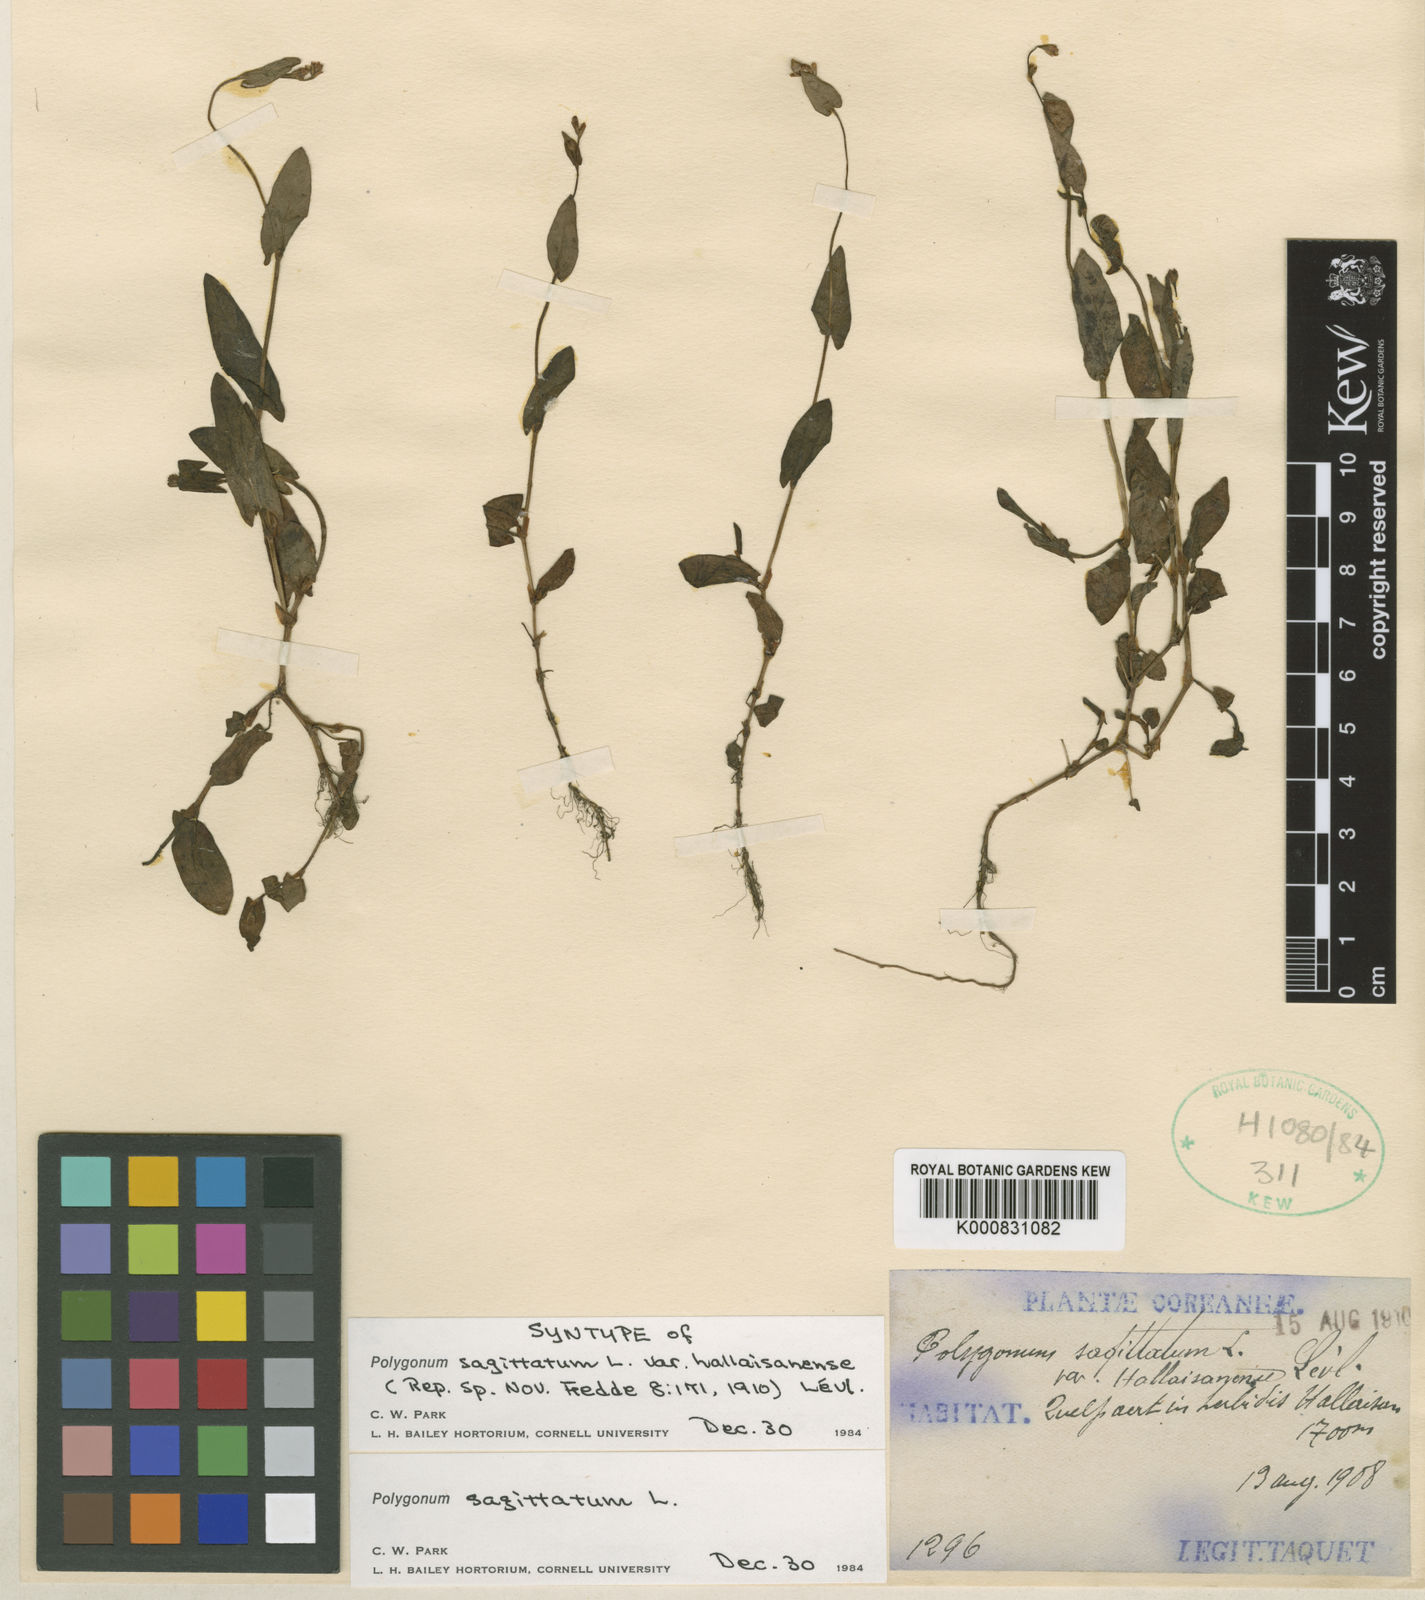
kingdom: Plantae
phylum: Tracheophyta
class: Magnoliopsida
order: Caryophyllales
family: Polygonaceae
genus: Persicaria
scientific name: Persicaria sagittata
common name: American tearthumb
